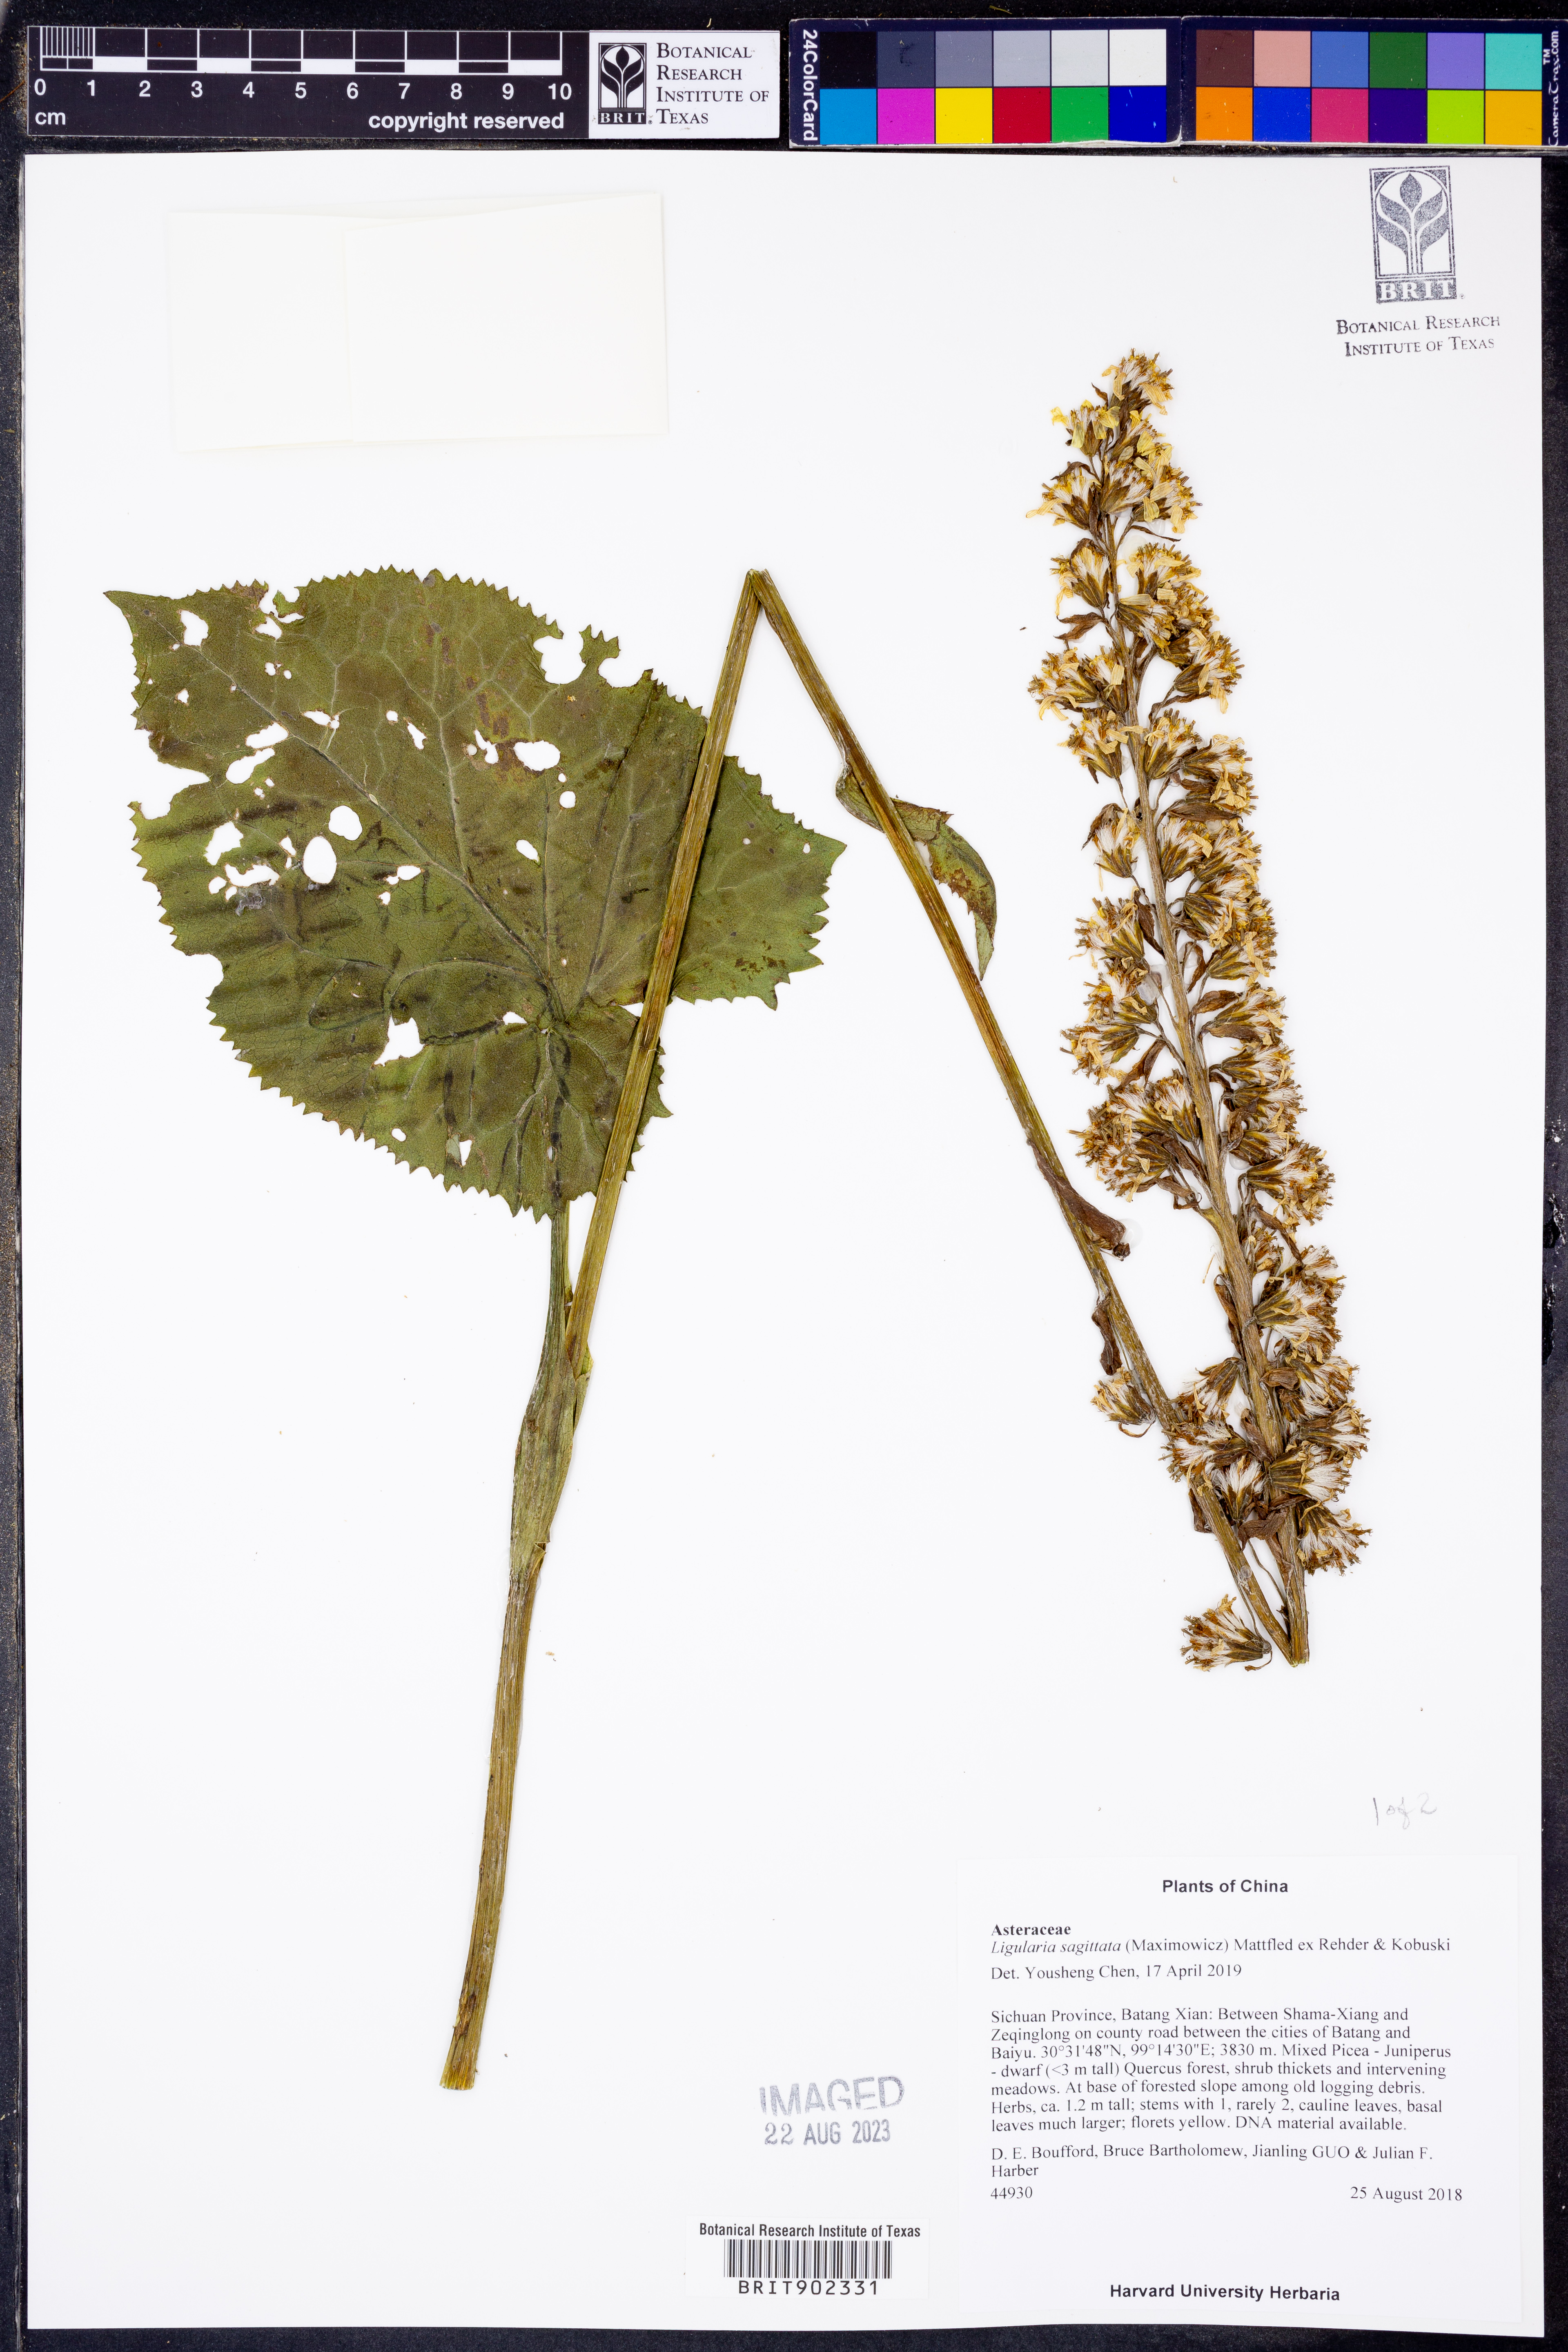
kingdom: Plantae
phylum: Tracheophyta
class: Magnoliopsida
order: Asterales
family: Asteraceae
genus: Ligularia
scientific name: Ligularia sagitta
